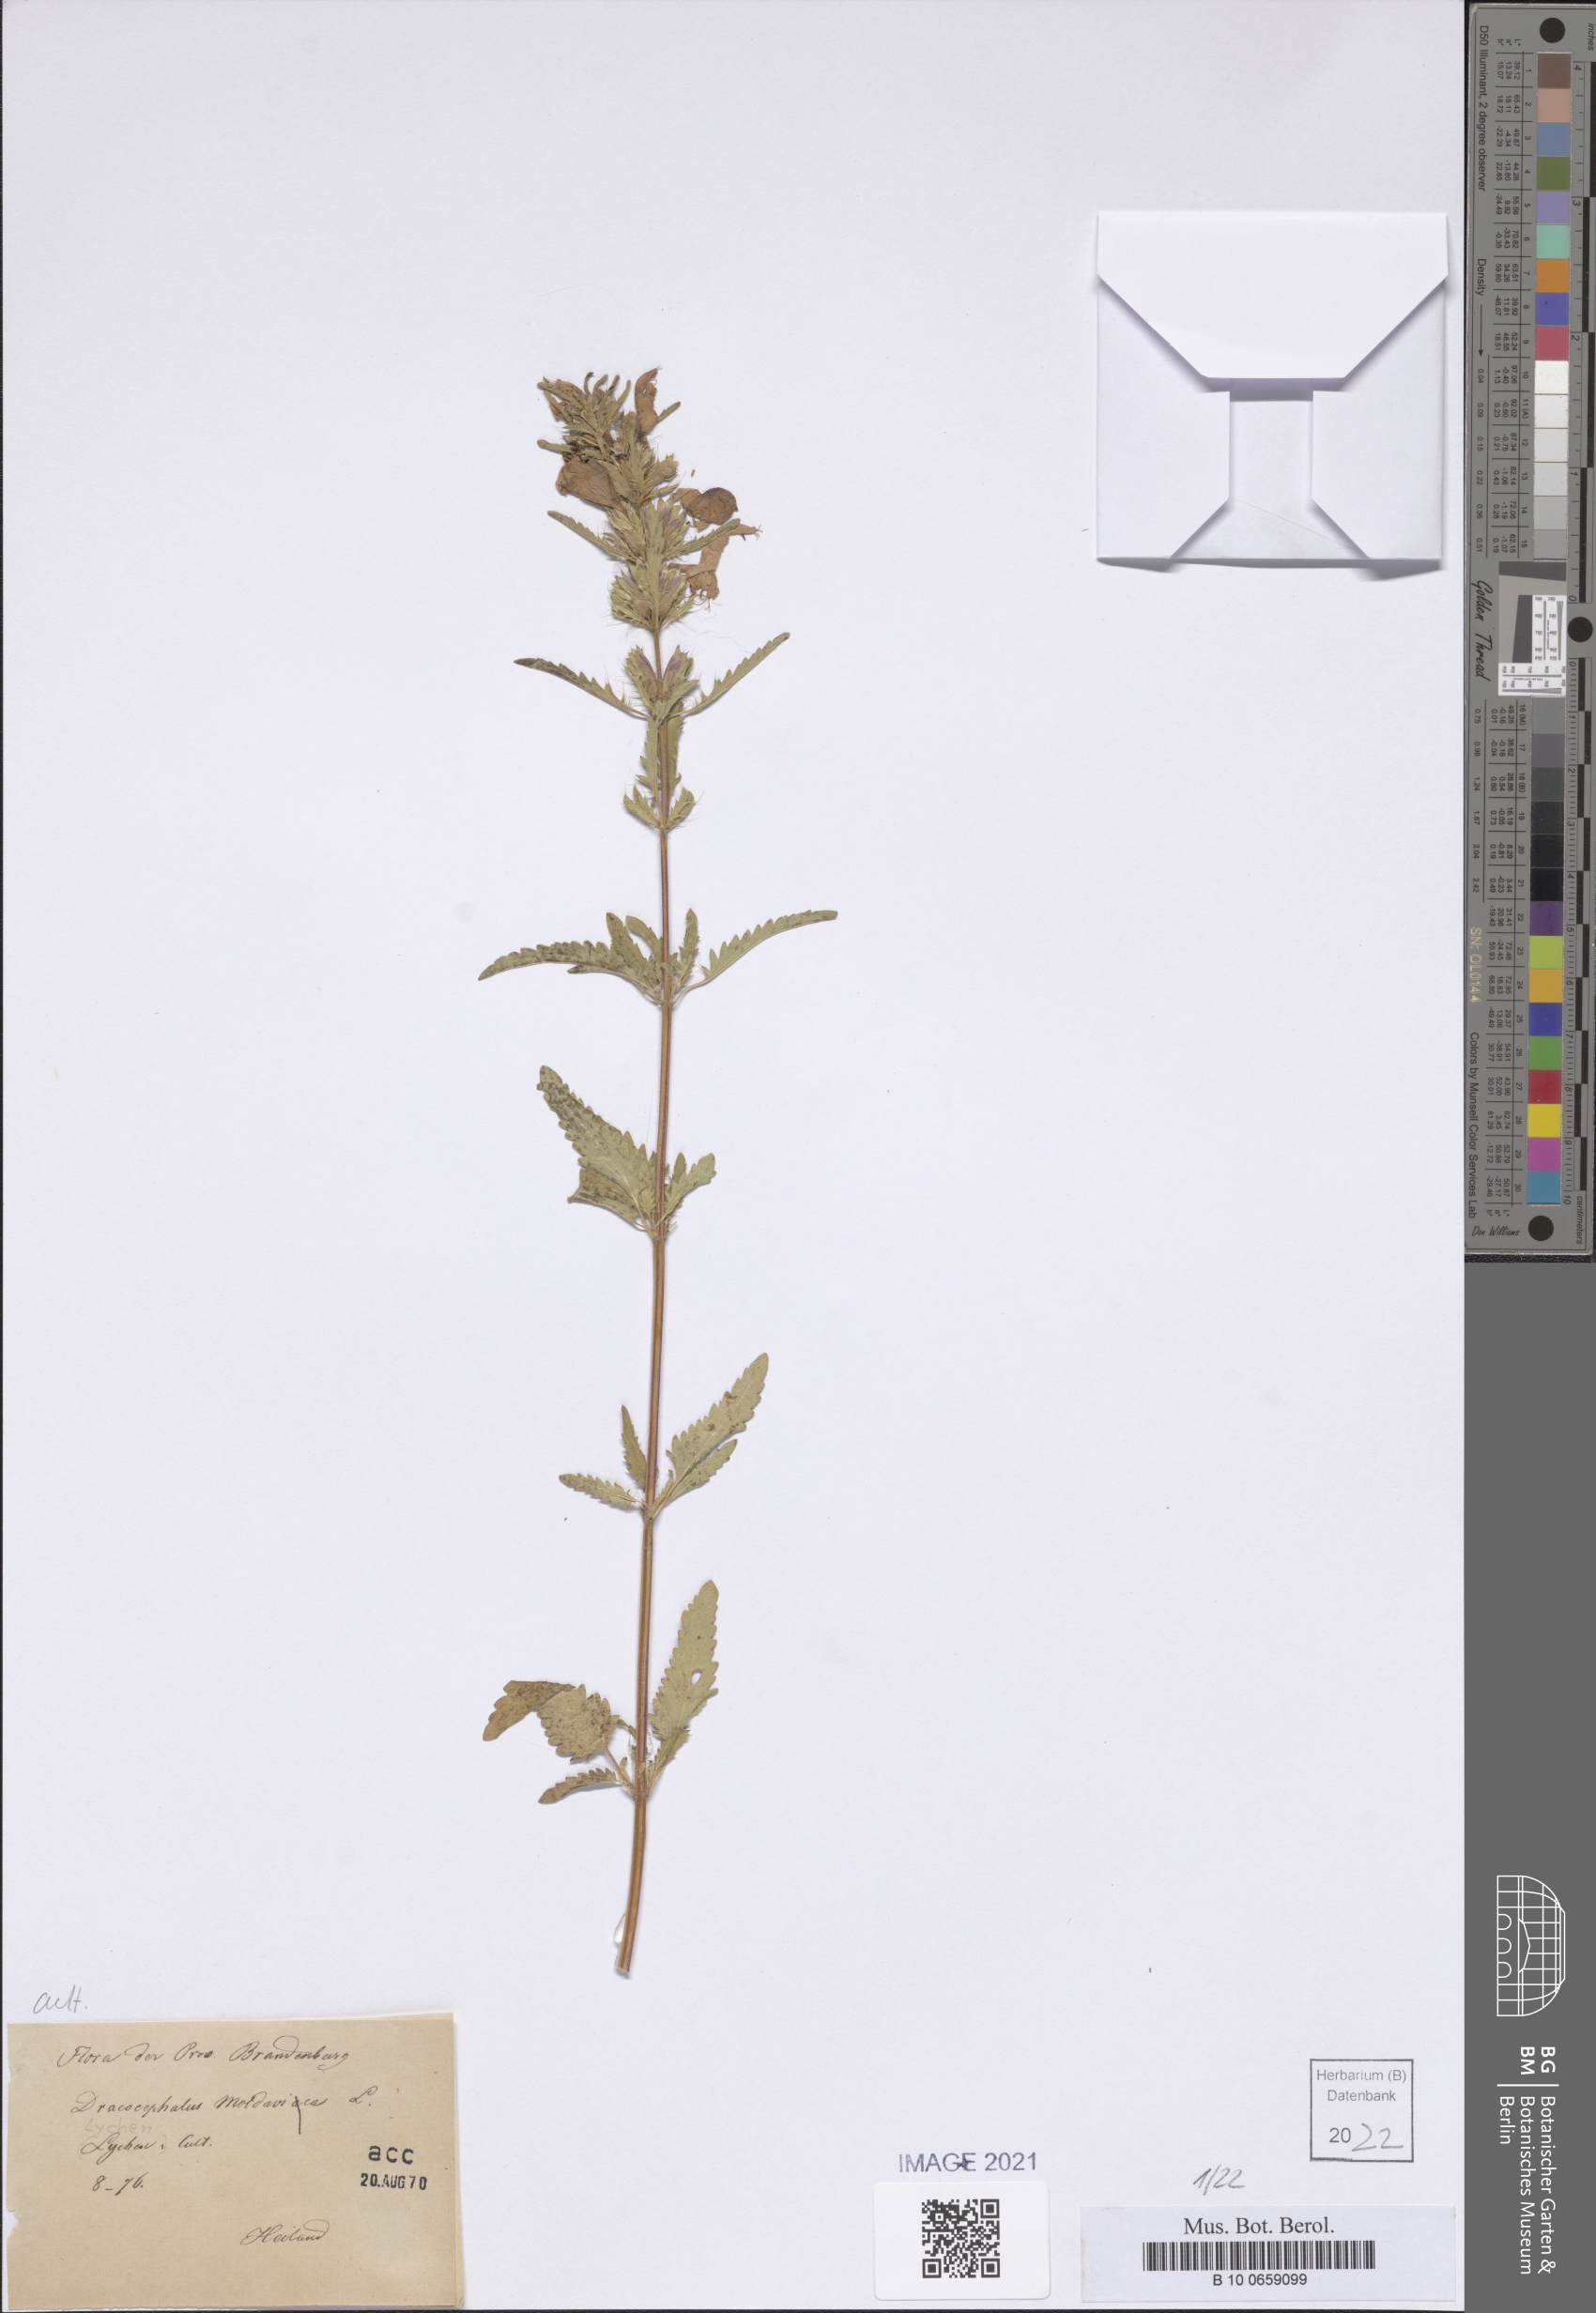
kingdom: Plantae
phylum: Tracheophyta
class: Magnoliopsida
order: Lamiales
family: Lamiaceae
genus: Dracocephalum
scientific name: Dracocephalum moldavica
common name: Moldavian dragonhead
